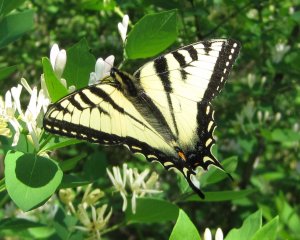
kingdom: Animalia
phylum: Arthropoda
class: Insecta
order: Lepidoptera
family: Papilionidae
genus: Pterourus
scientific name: Pterourus canadensis
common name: Canadian Tiger Swallowtail
